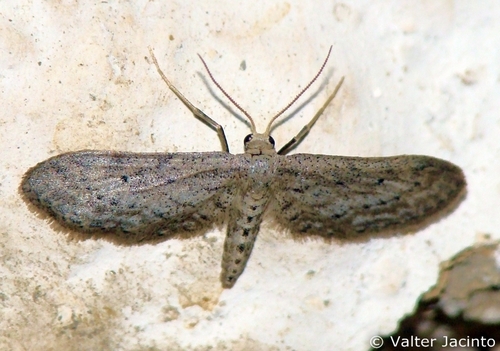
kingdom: Animalia
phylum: Arthropoda
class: Insecta
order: Lepidoptera
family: Geometridae
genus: Idaea
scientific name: Idaea longaria
